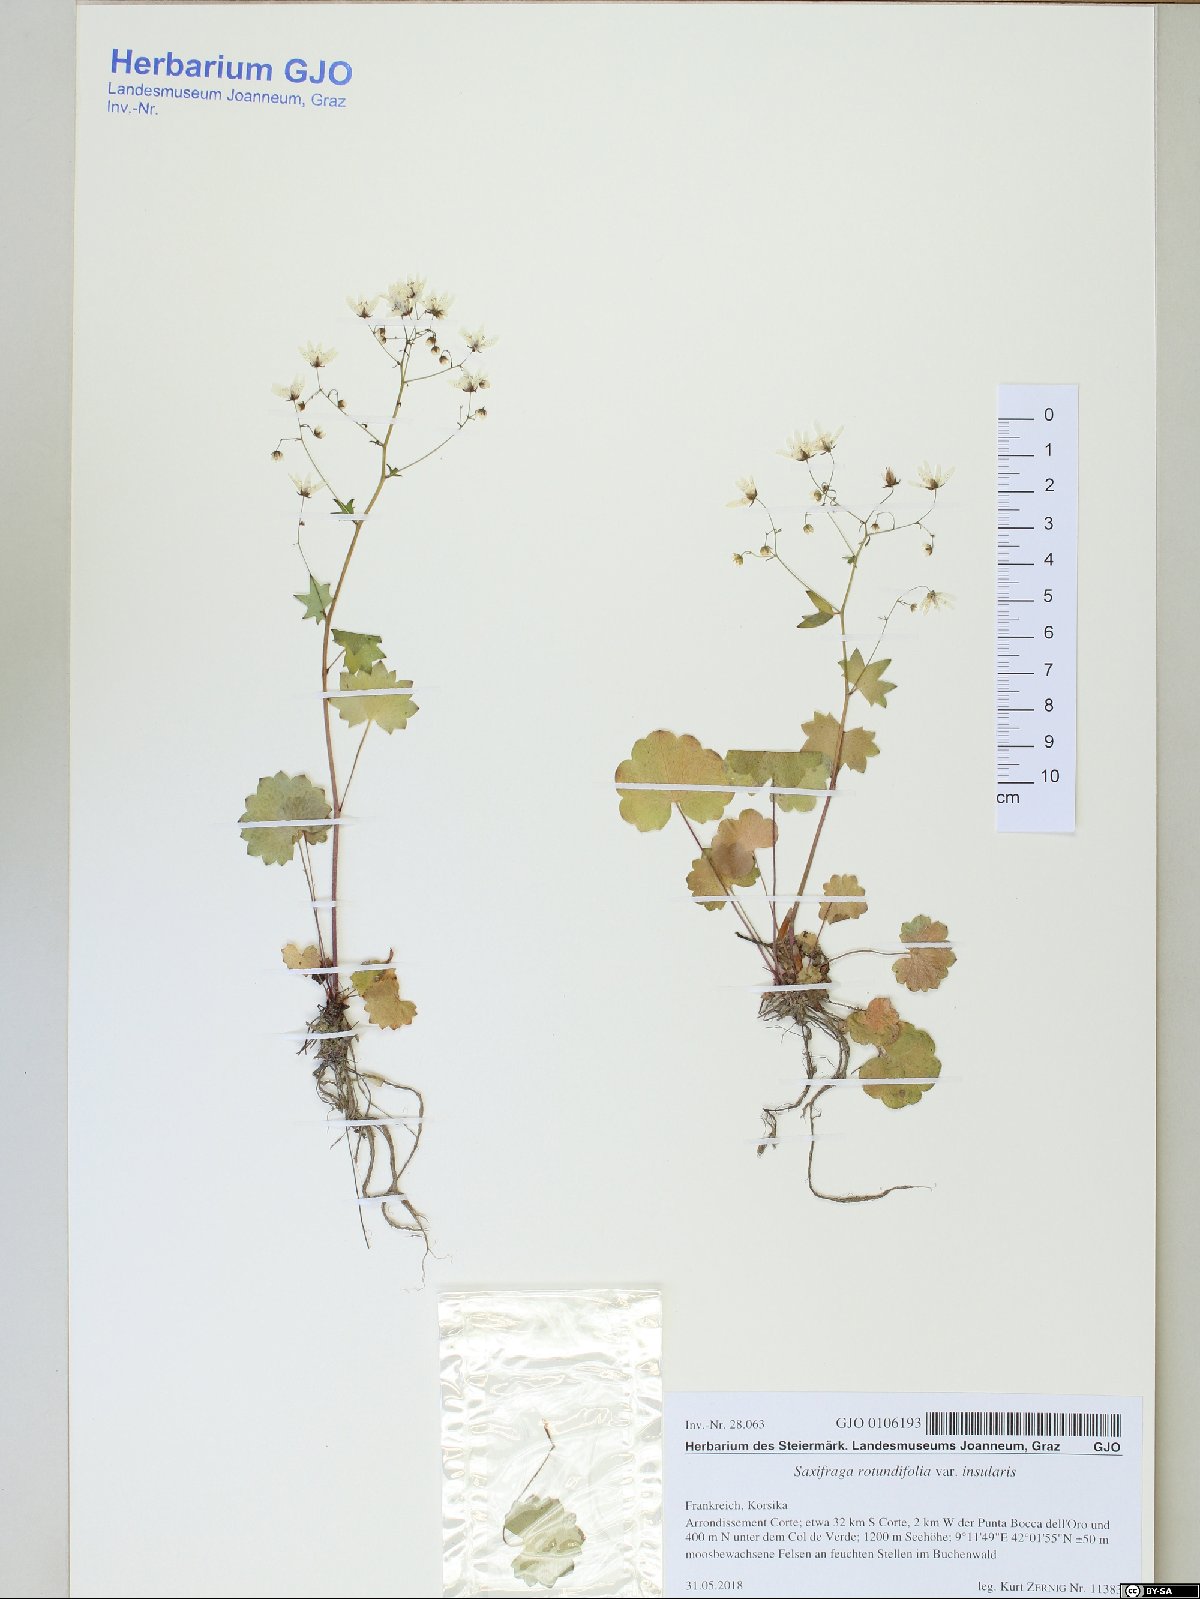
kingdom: Plantae
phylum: Tracheophyta
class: Magnoliopsida
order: Saxifragales
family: Saxifragaceae
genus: Saxifraga
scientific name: Saxifraga rotundifolia
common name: Round-leaved saxifrage
